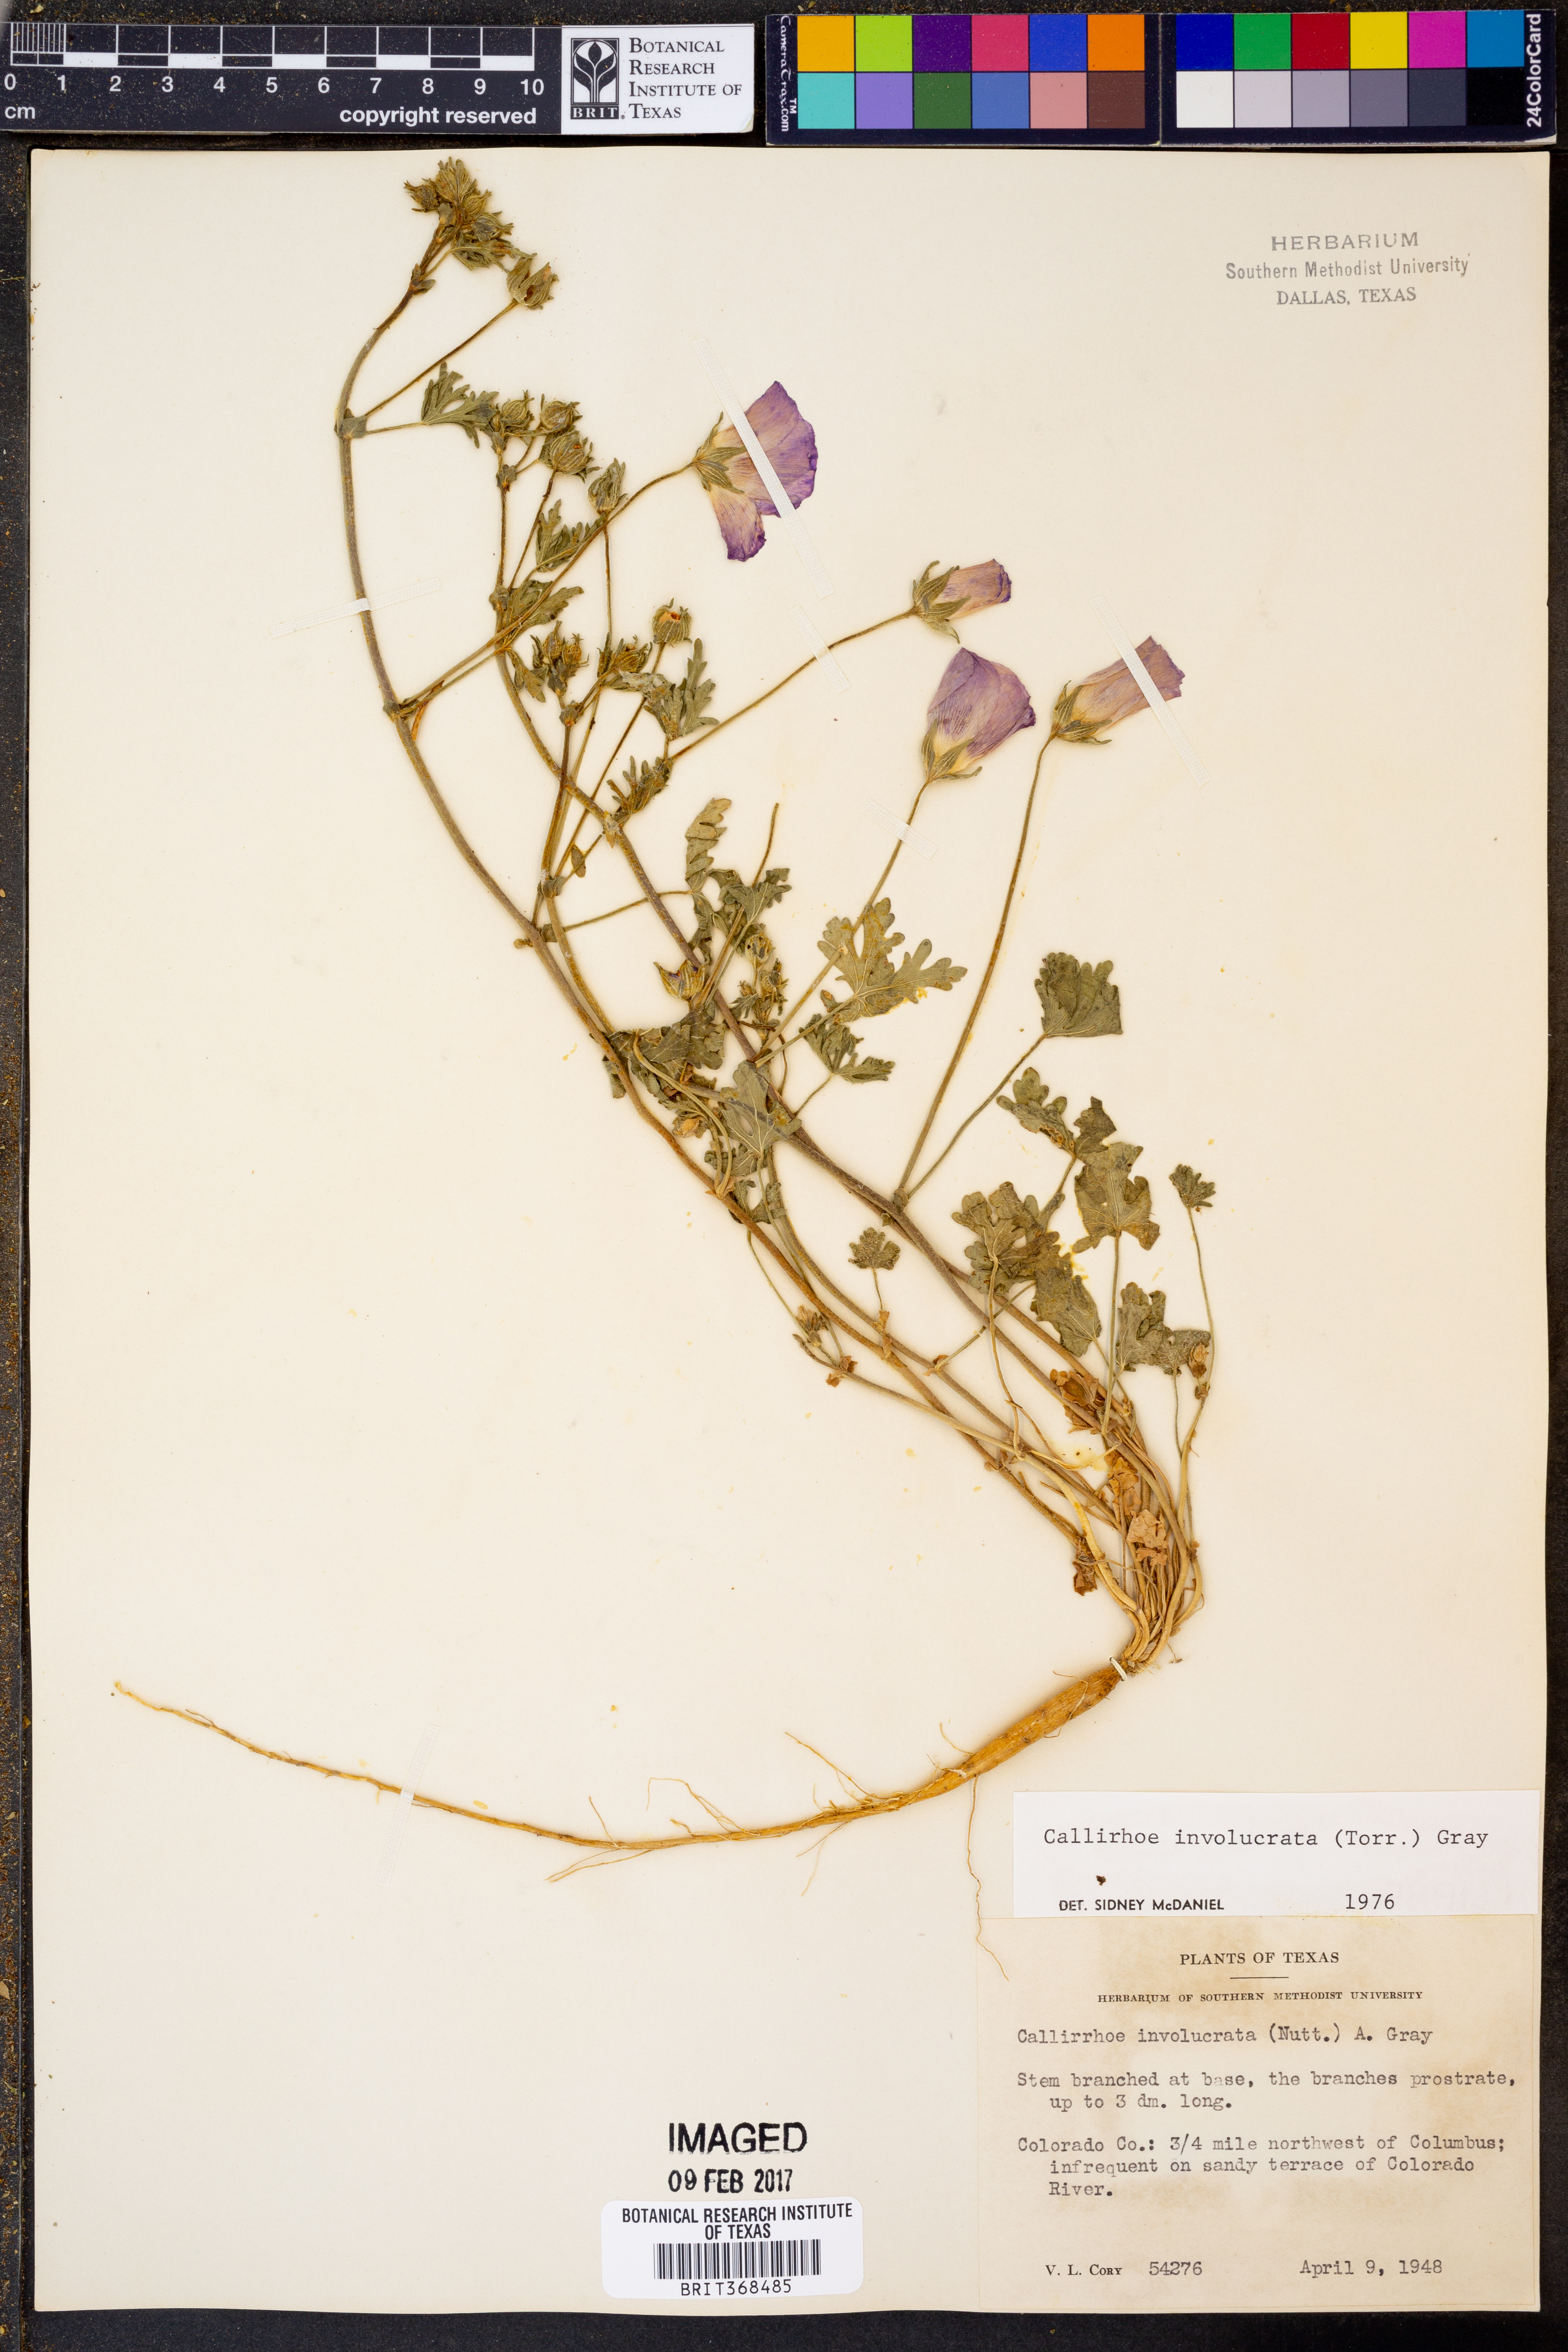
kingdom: Plantae
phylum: Tracheophyta
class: Magnoliopsida
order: Malvales
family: Malvaceae
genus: Callirhoe
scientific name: Callirhoe involucrata
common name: Purple poppy-mallow
